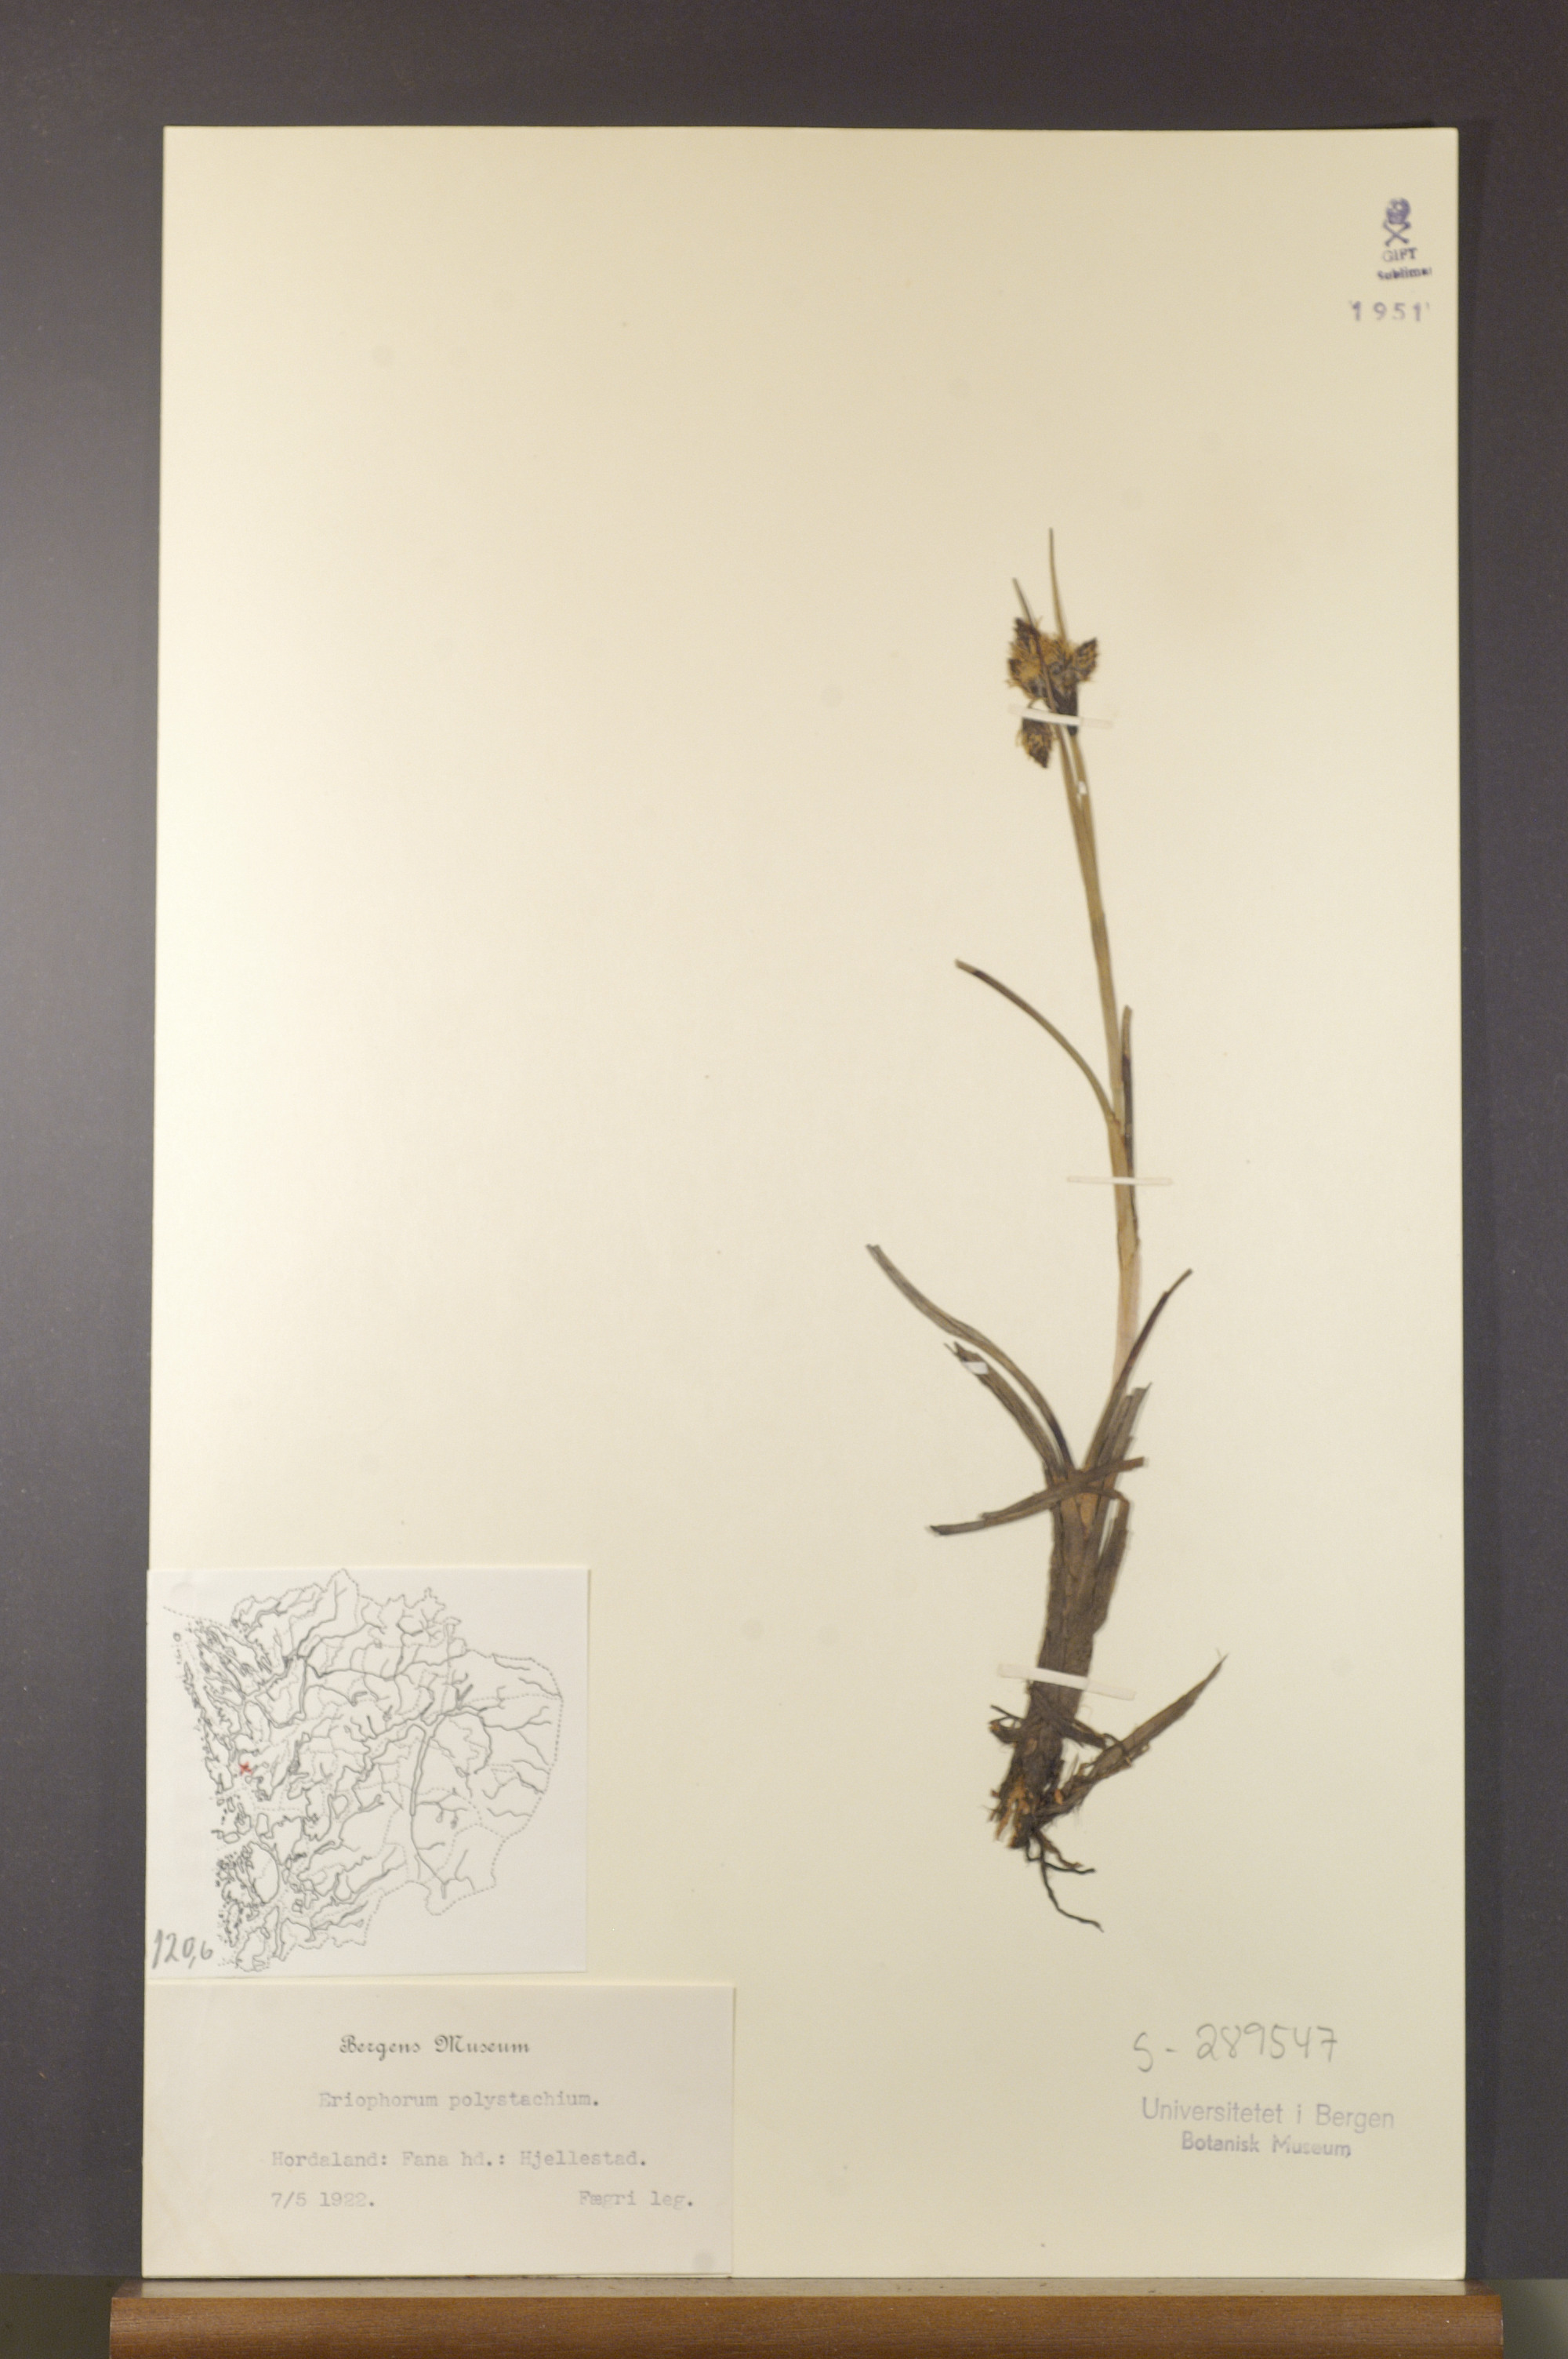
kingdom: Plantae
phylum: Tracheophyta
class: Liliopsida
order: Poales
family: Cyperaceae
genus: Eriophorum
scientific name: Eriophorum angustifolium
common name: Common cottongrass
